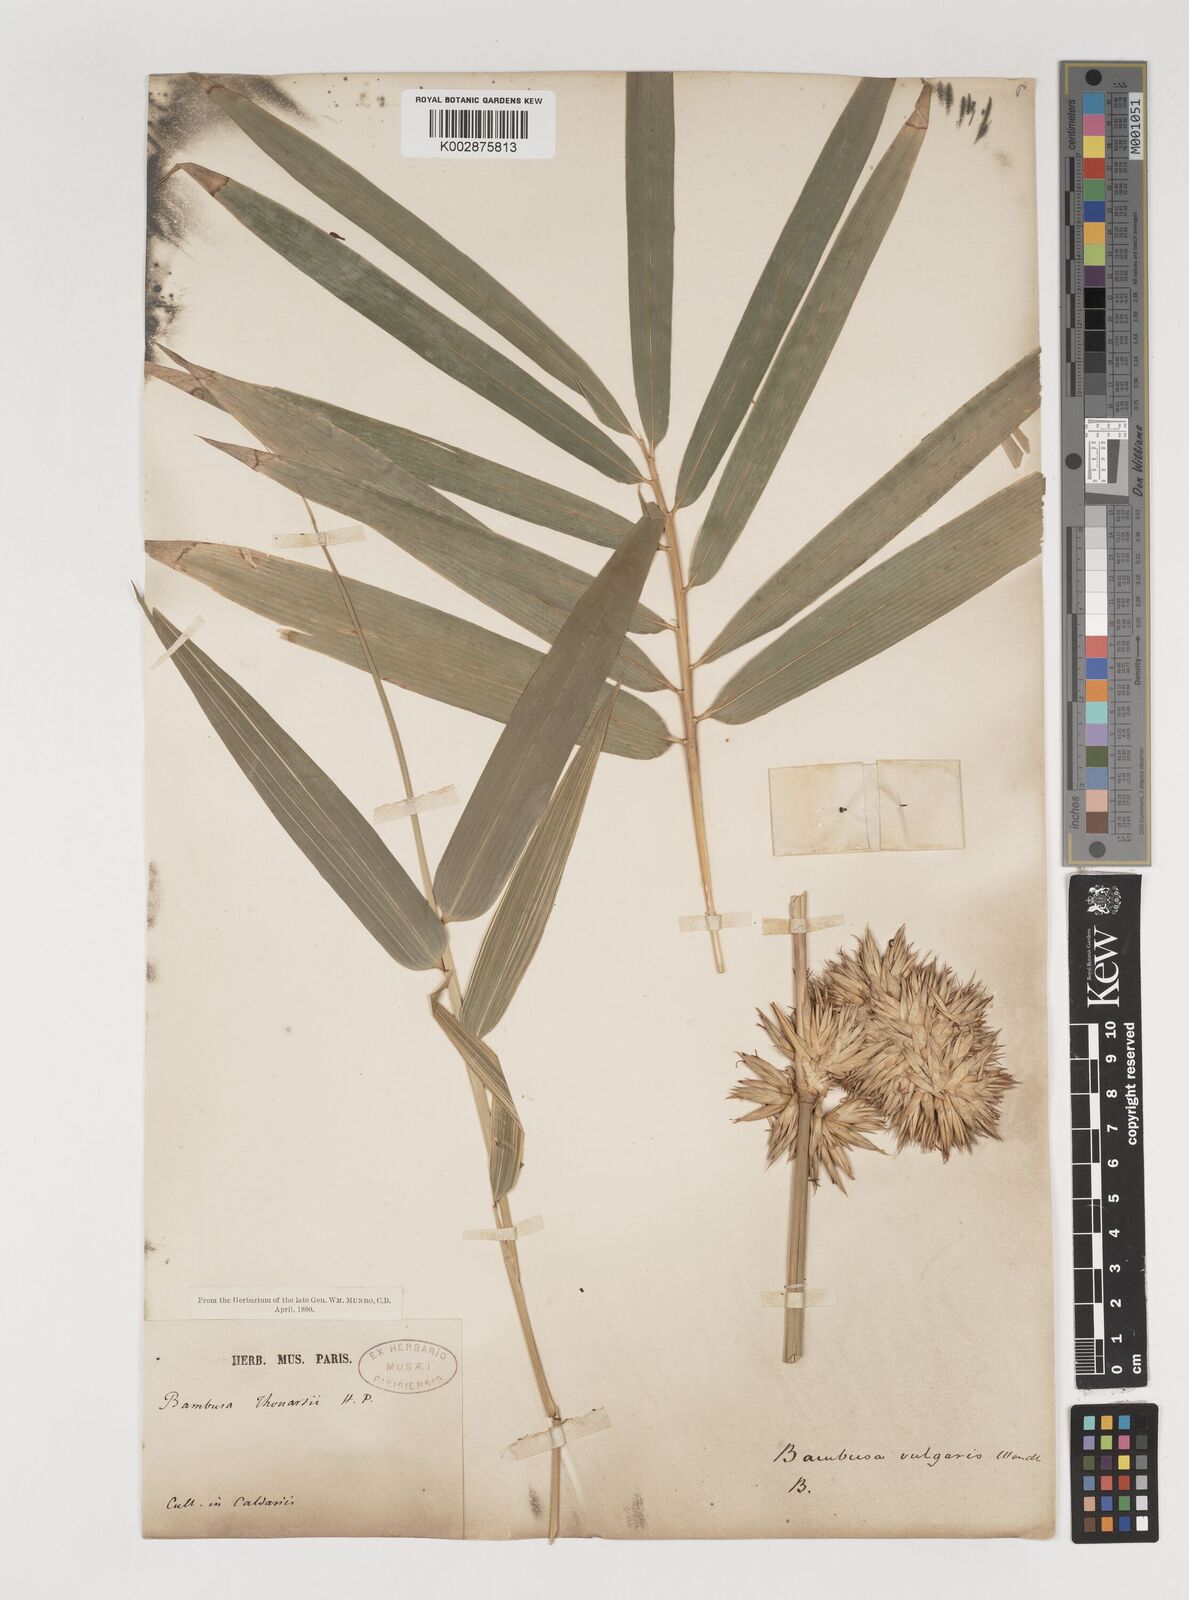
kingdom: Plantae
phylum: Tracheophyta
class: Liliopsida
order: Poales
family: Poaceae
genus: Bambusa
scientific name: Bambusa balcooa
